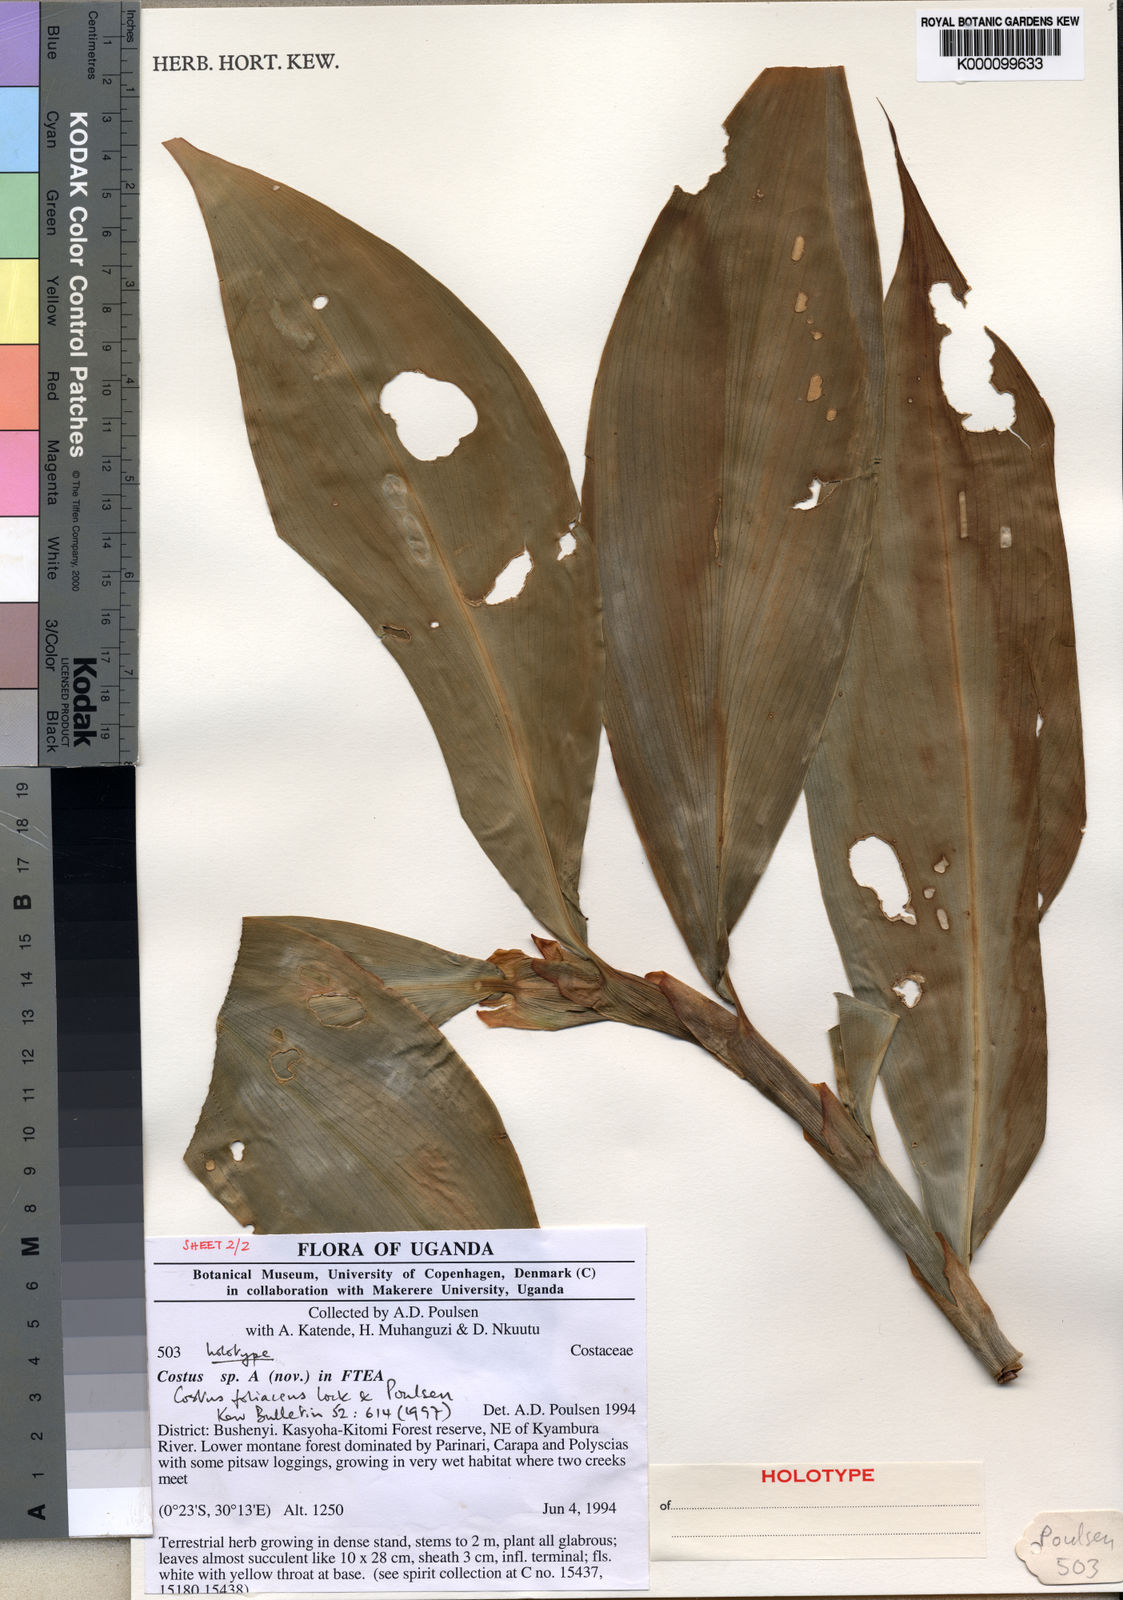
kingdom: Plantae
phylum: Tracheophyta
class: Liliopsida
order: Zingiberales
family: Costaceae
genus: Costus
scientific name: Costus phyllocephalus
